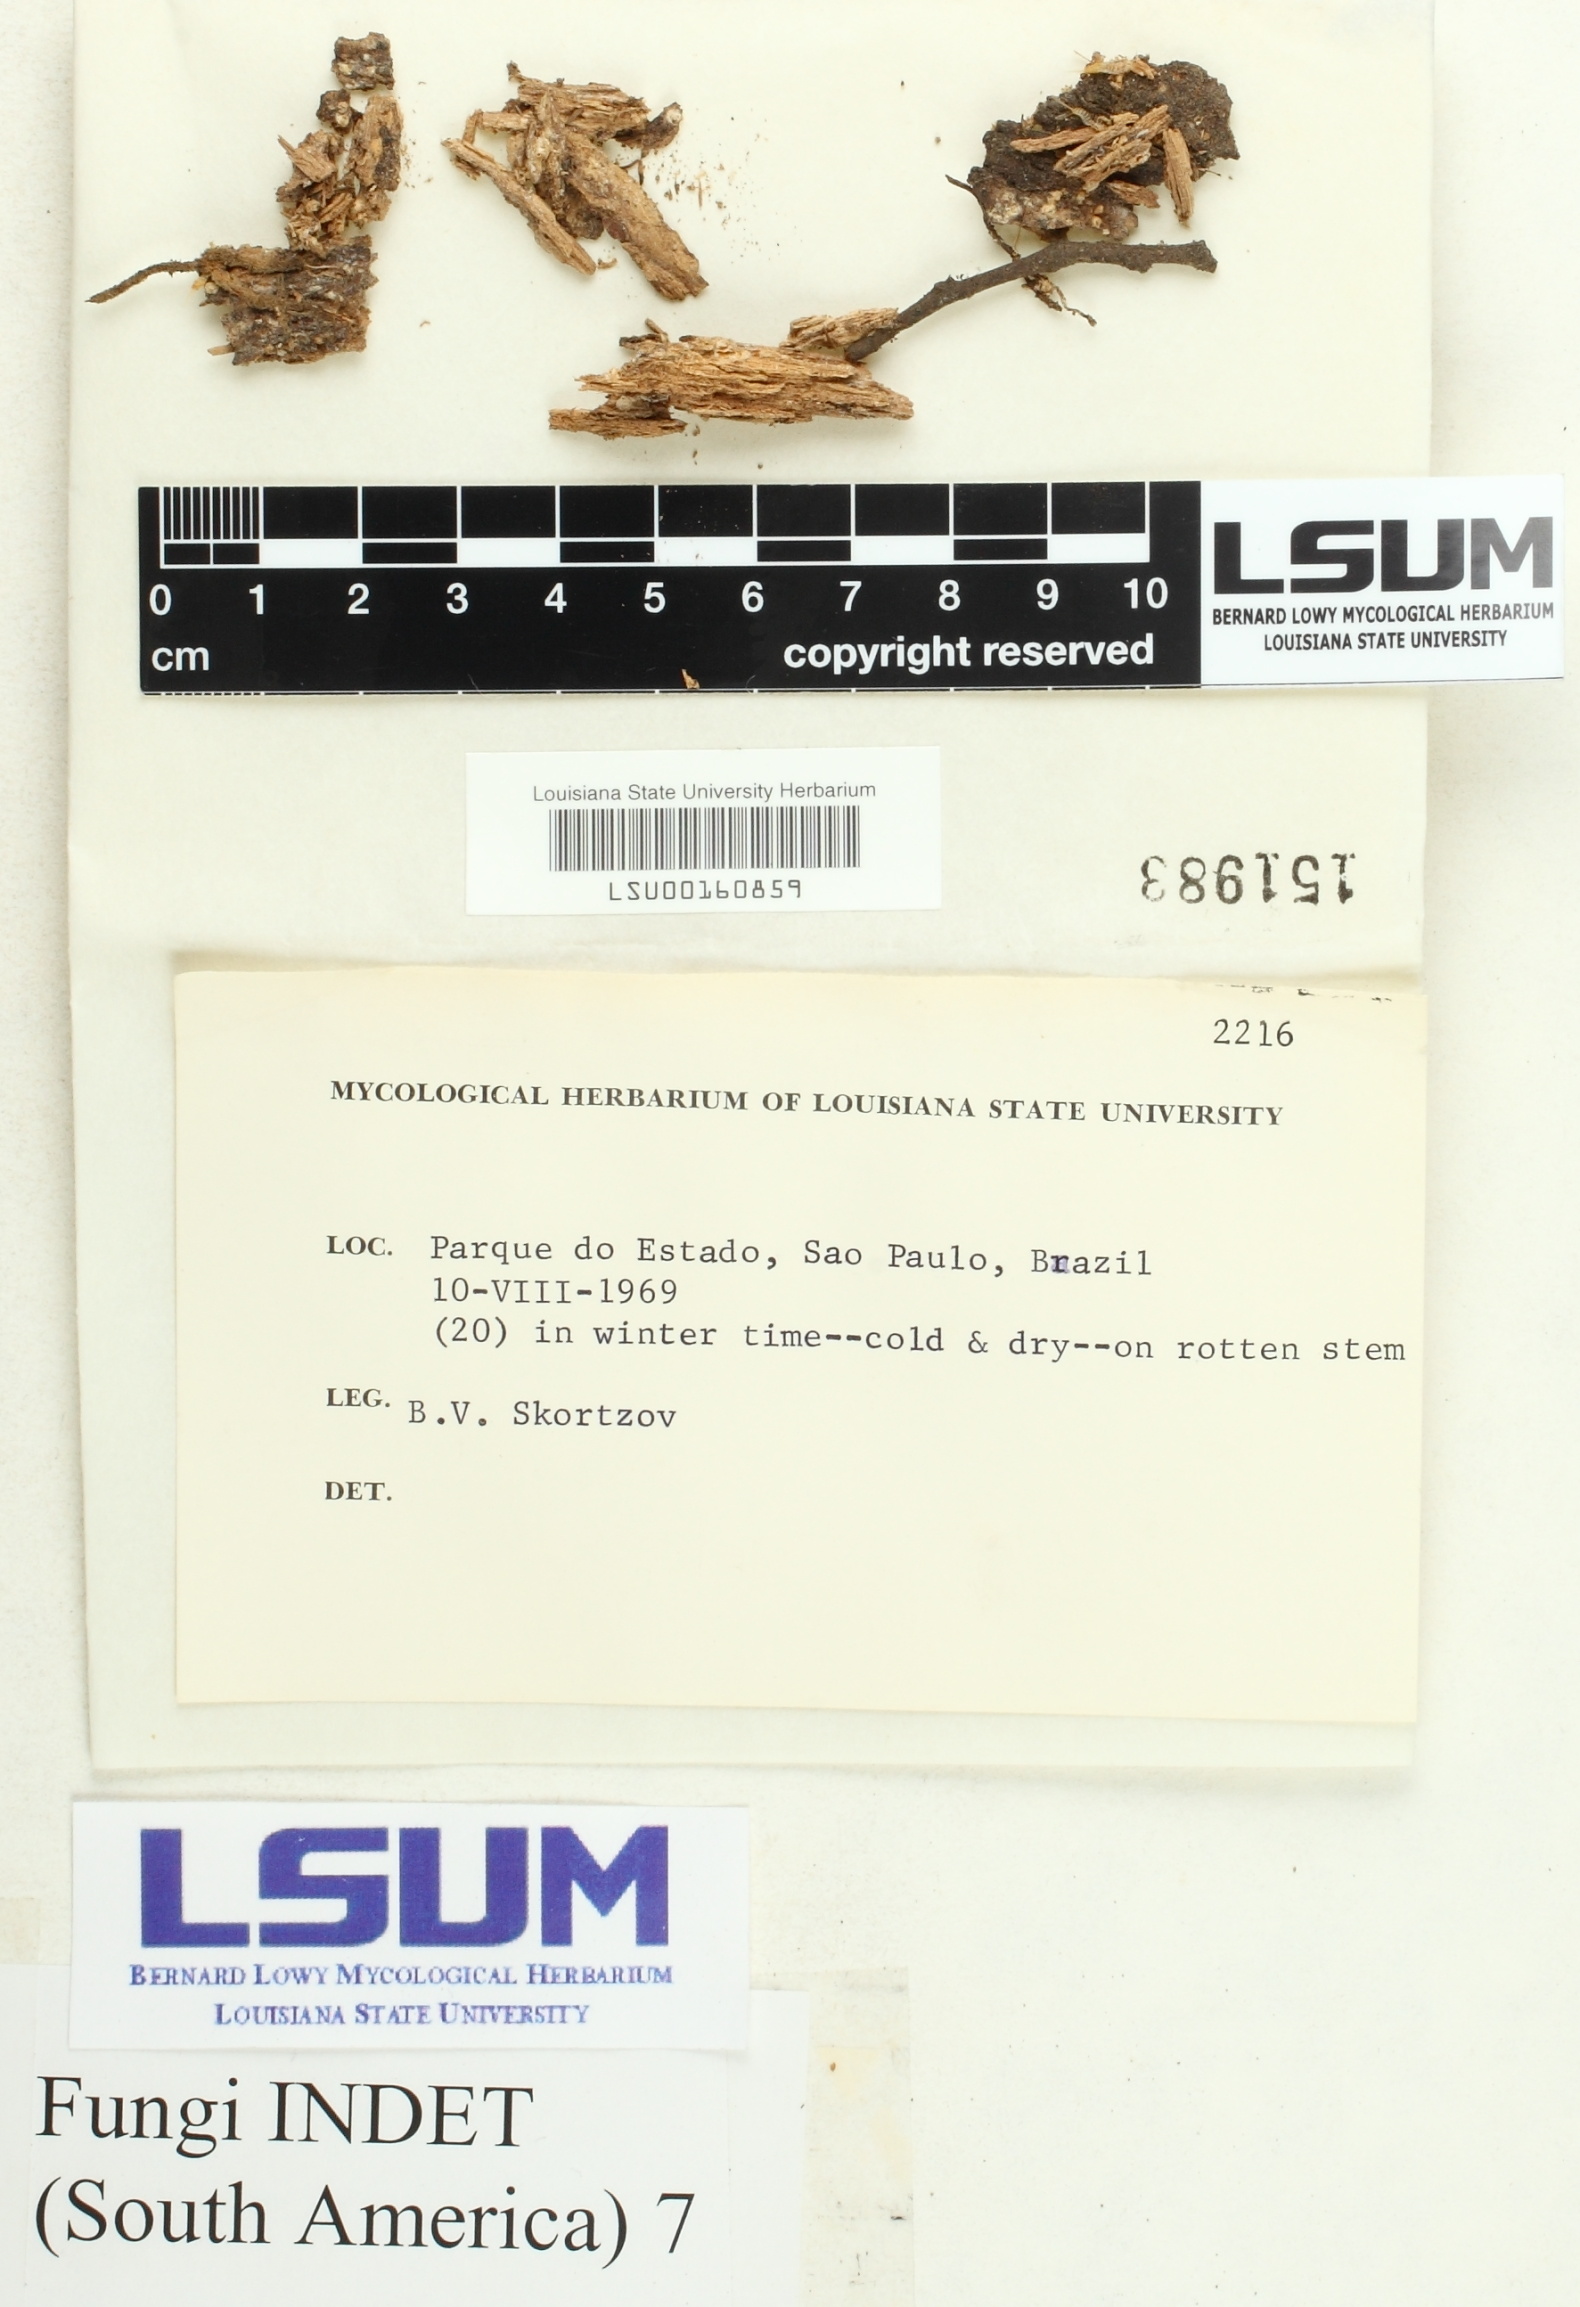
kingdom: Fungi
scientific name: Fungi
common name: Fungi
